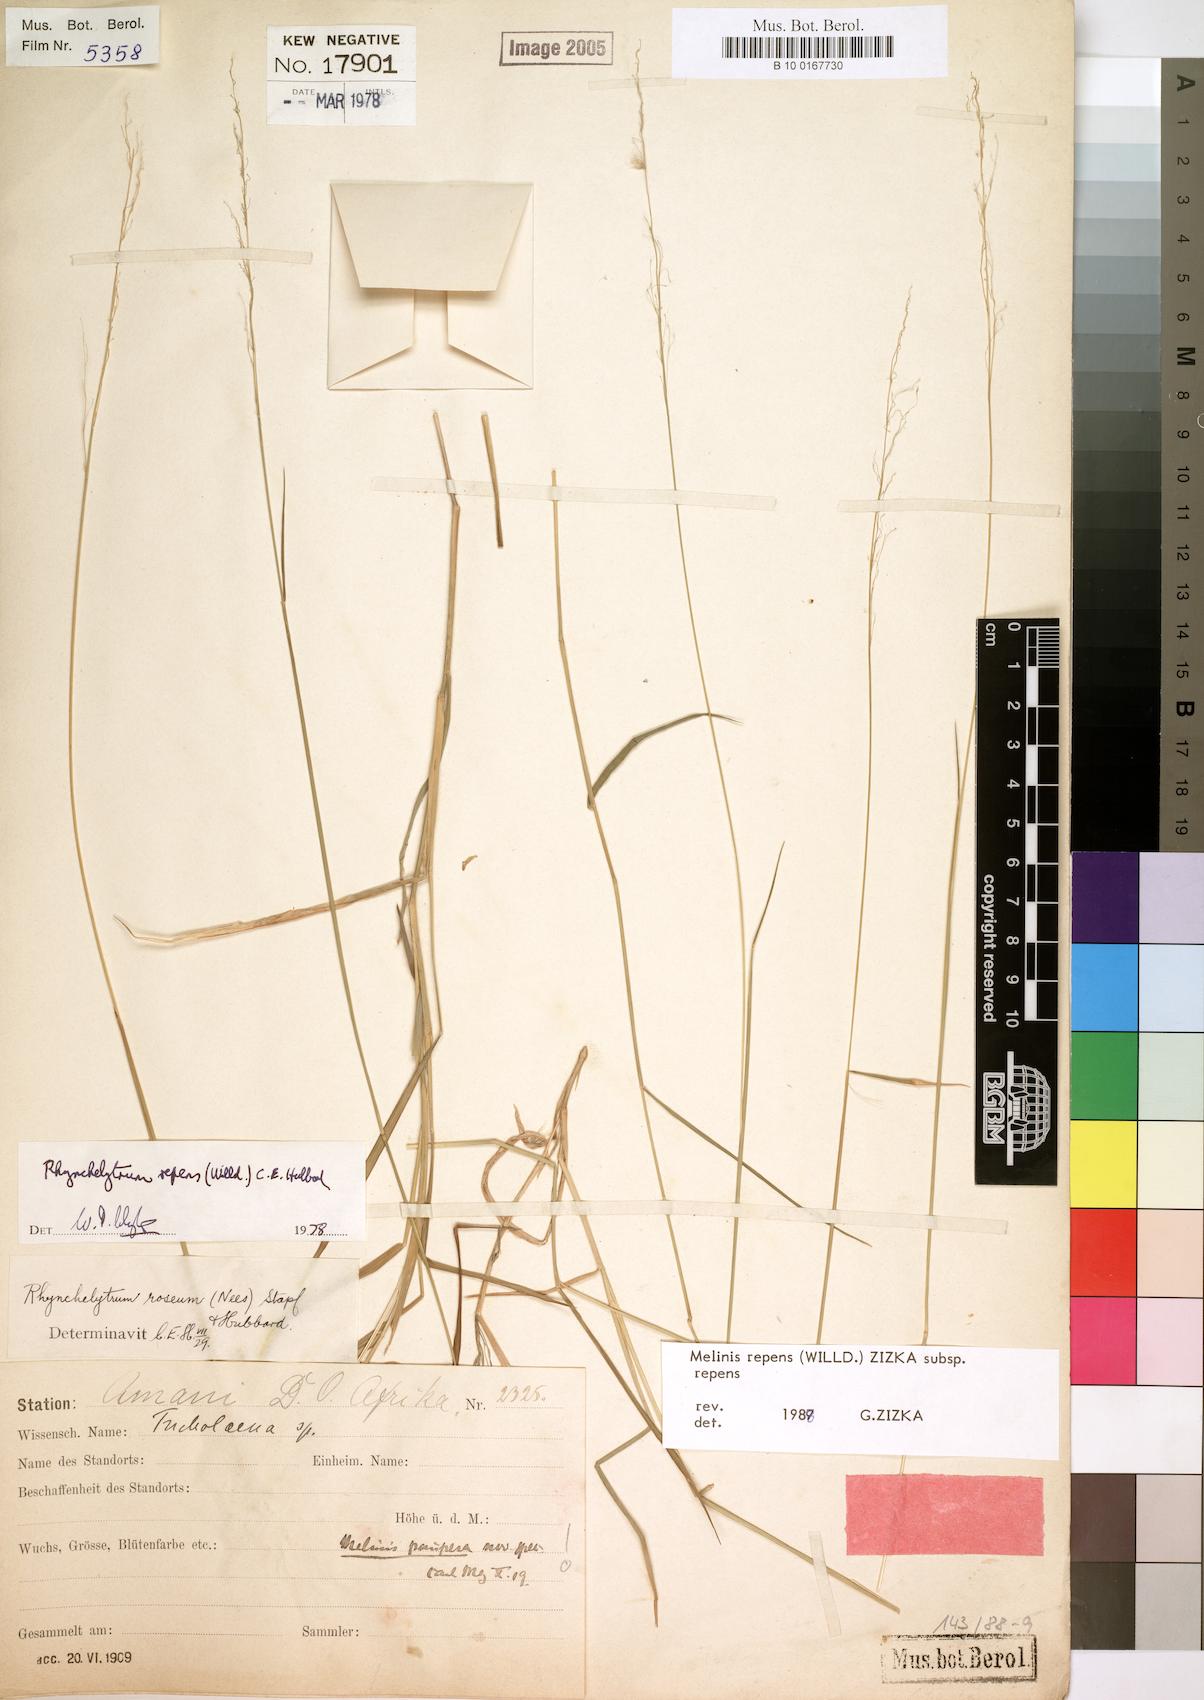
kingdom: Plantae
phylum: Tracheophyta
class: Liliopsida
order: Poales
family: Poaceae
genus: Melinis
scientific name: Melinis repens
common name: Rose natal grass
